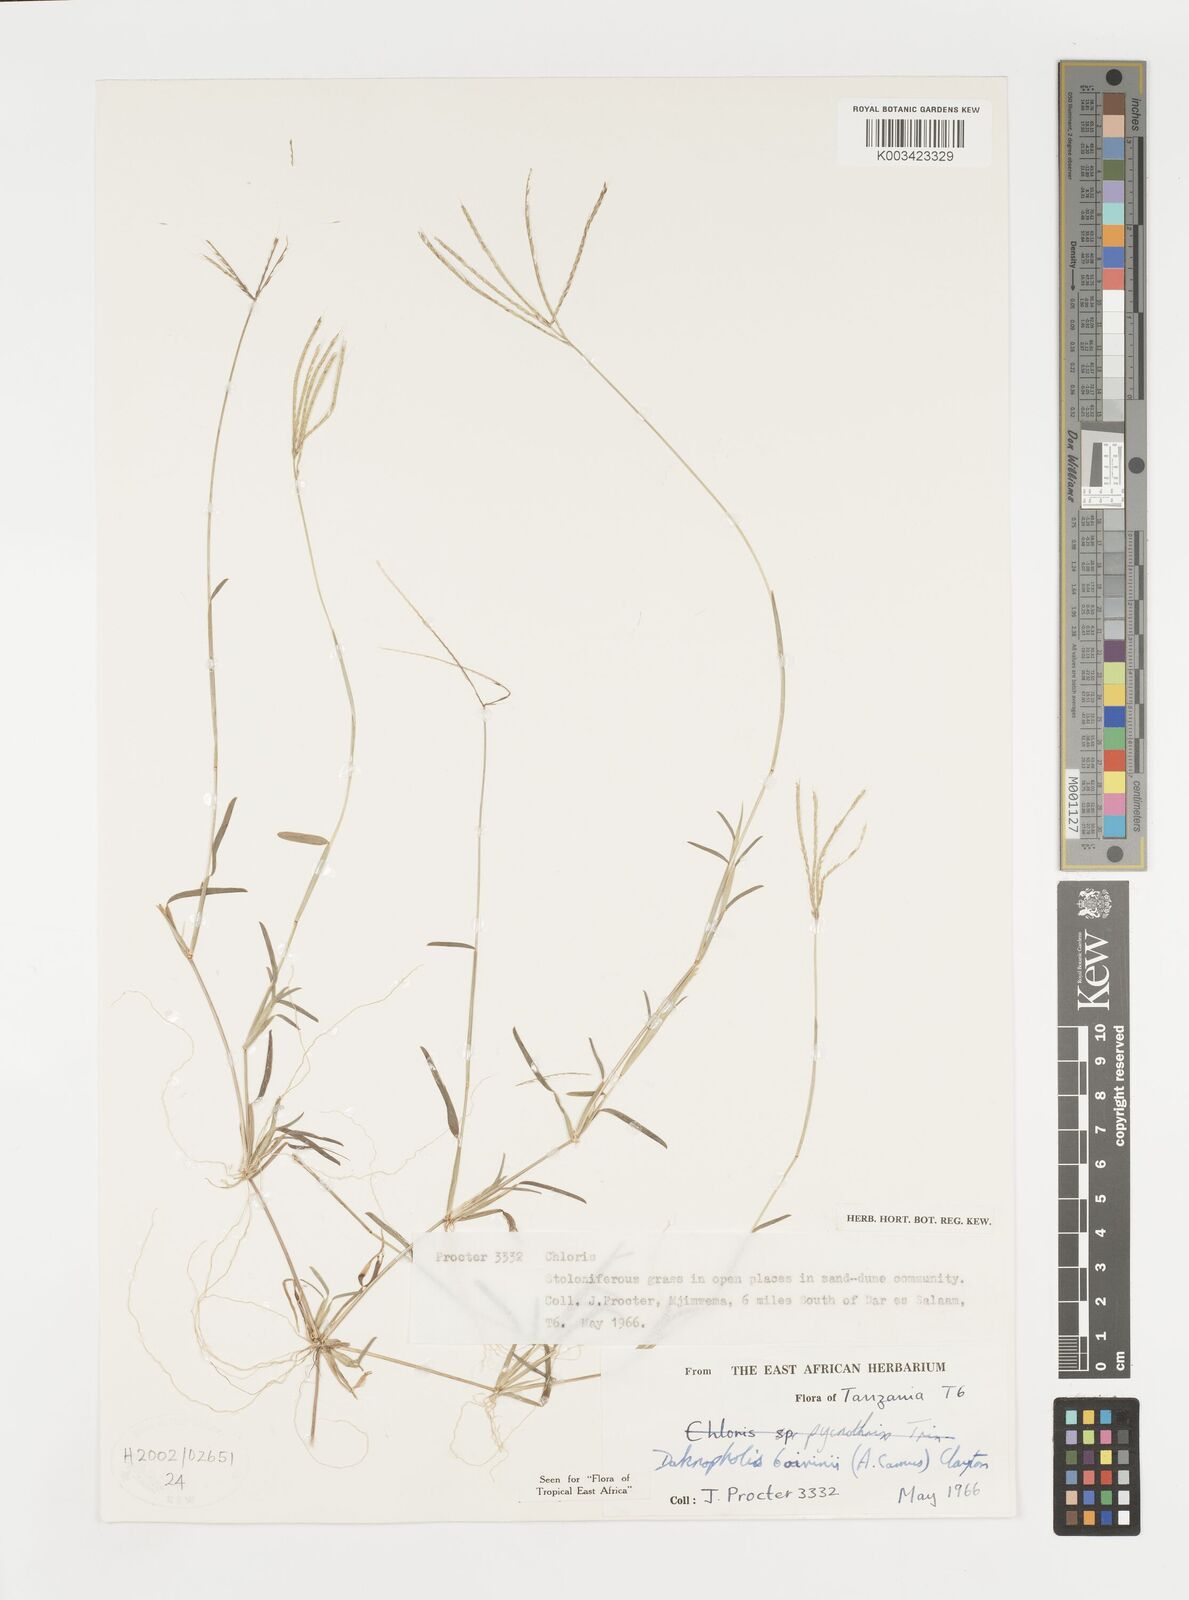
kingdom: Plantae
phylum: Tracheophyta
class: Liliopsida
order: Poales
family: Poaceae
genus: Daknopholis
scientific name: Daknopholis boivinii
